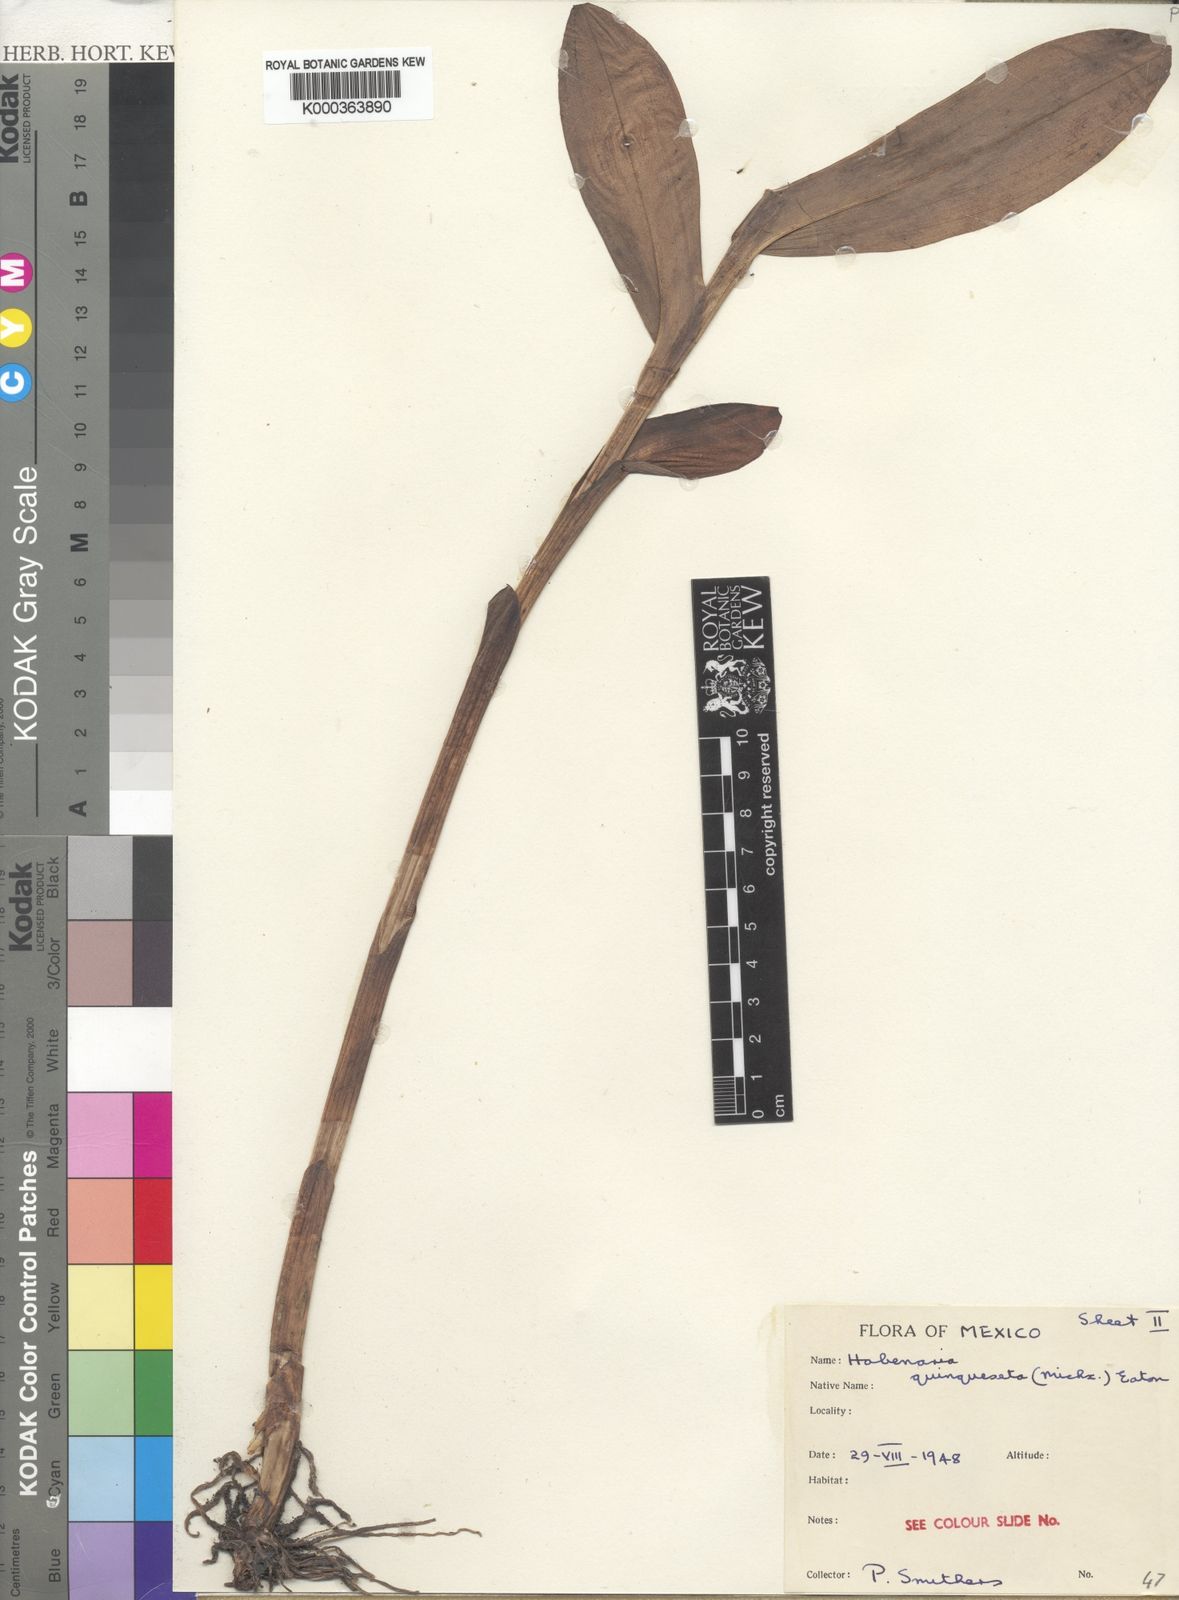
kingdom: Plantae
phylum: Tracheophyta
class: Liliopsida
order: Asparagales
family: Orchidaceae
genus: Habenaria
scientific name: Habenaria
